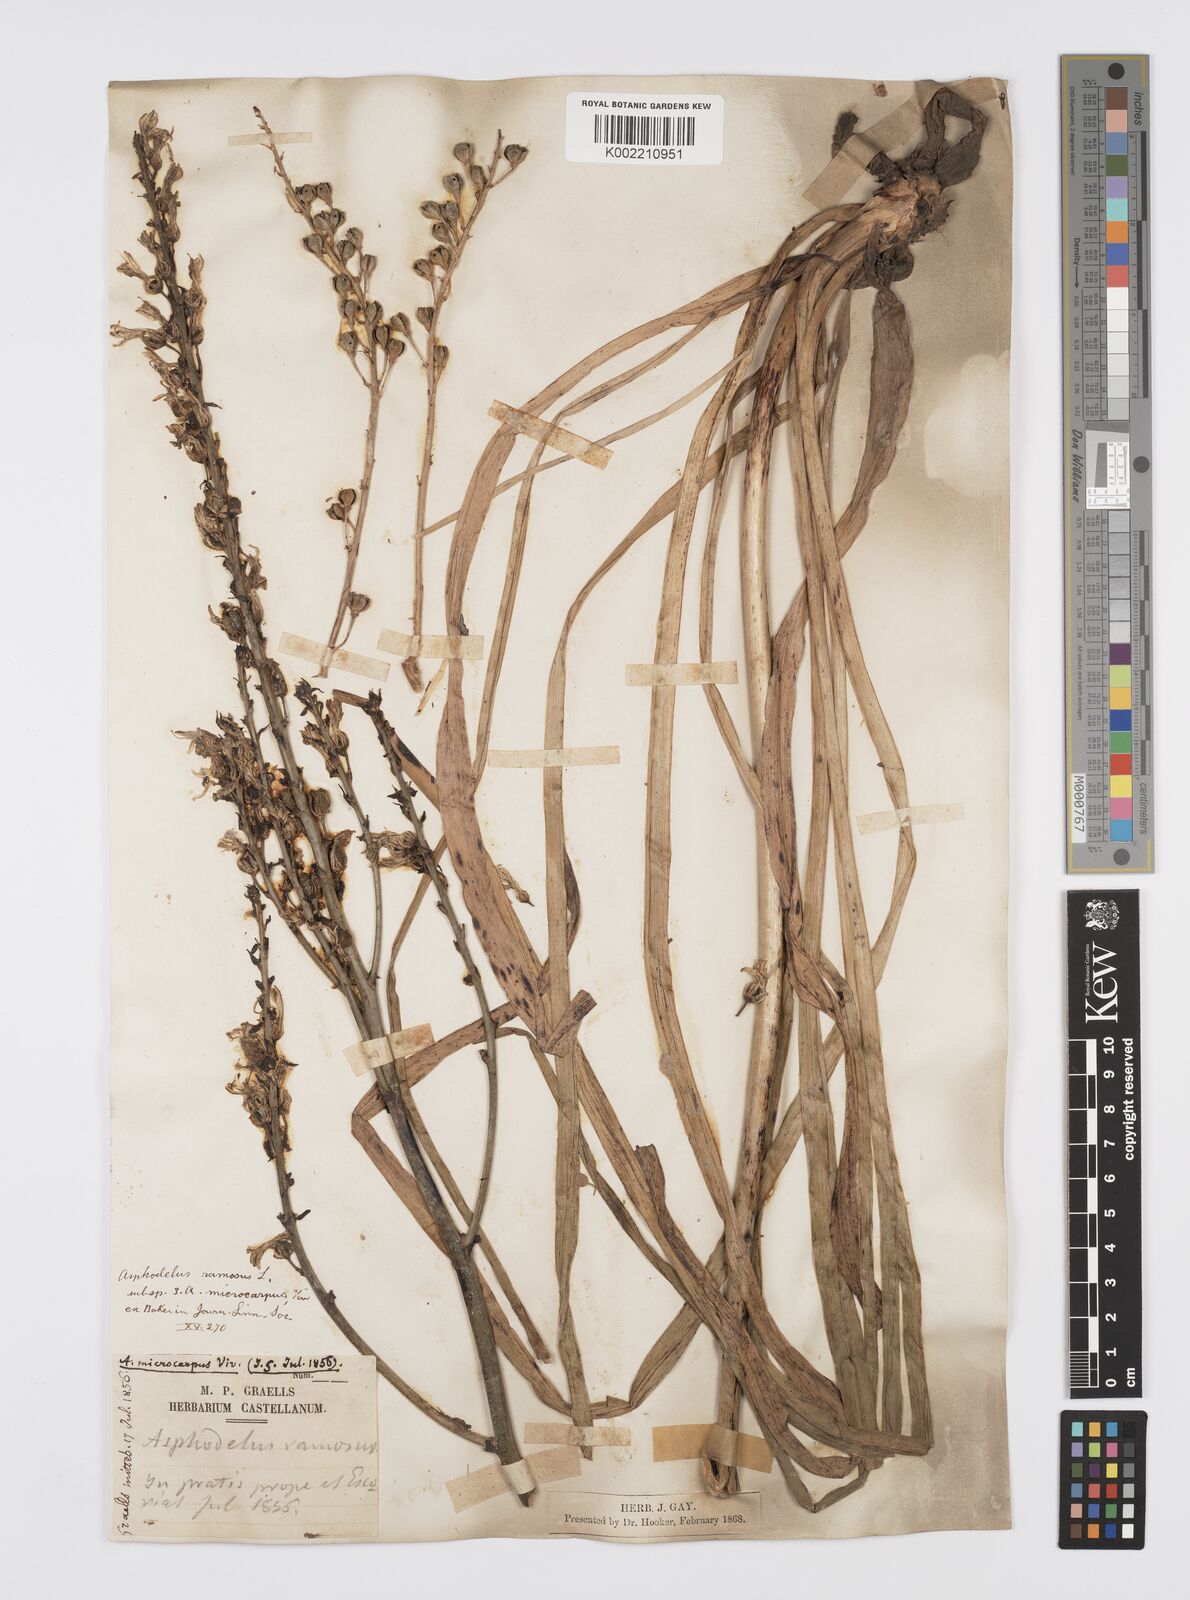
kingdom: Plantae
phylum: Tracheophyta
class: Liliopsida
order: Asparagales
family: Asphodelaceae
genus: Asphodelus
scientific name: Asphodelus ramosus
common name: Silverrod
